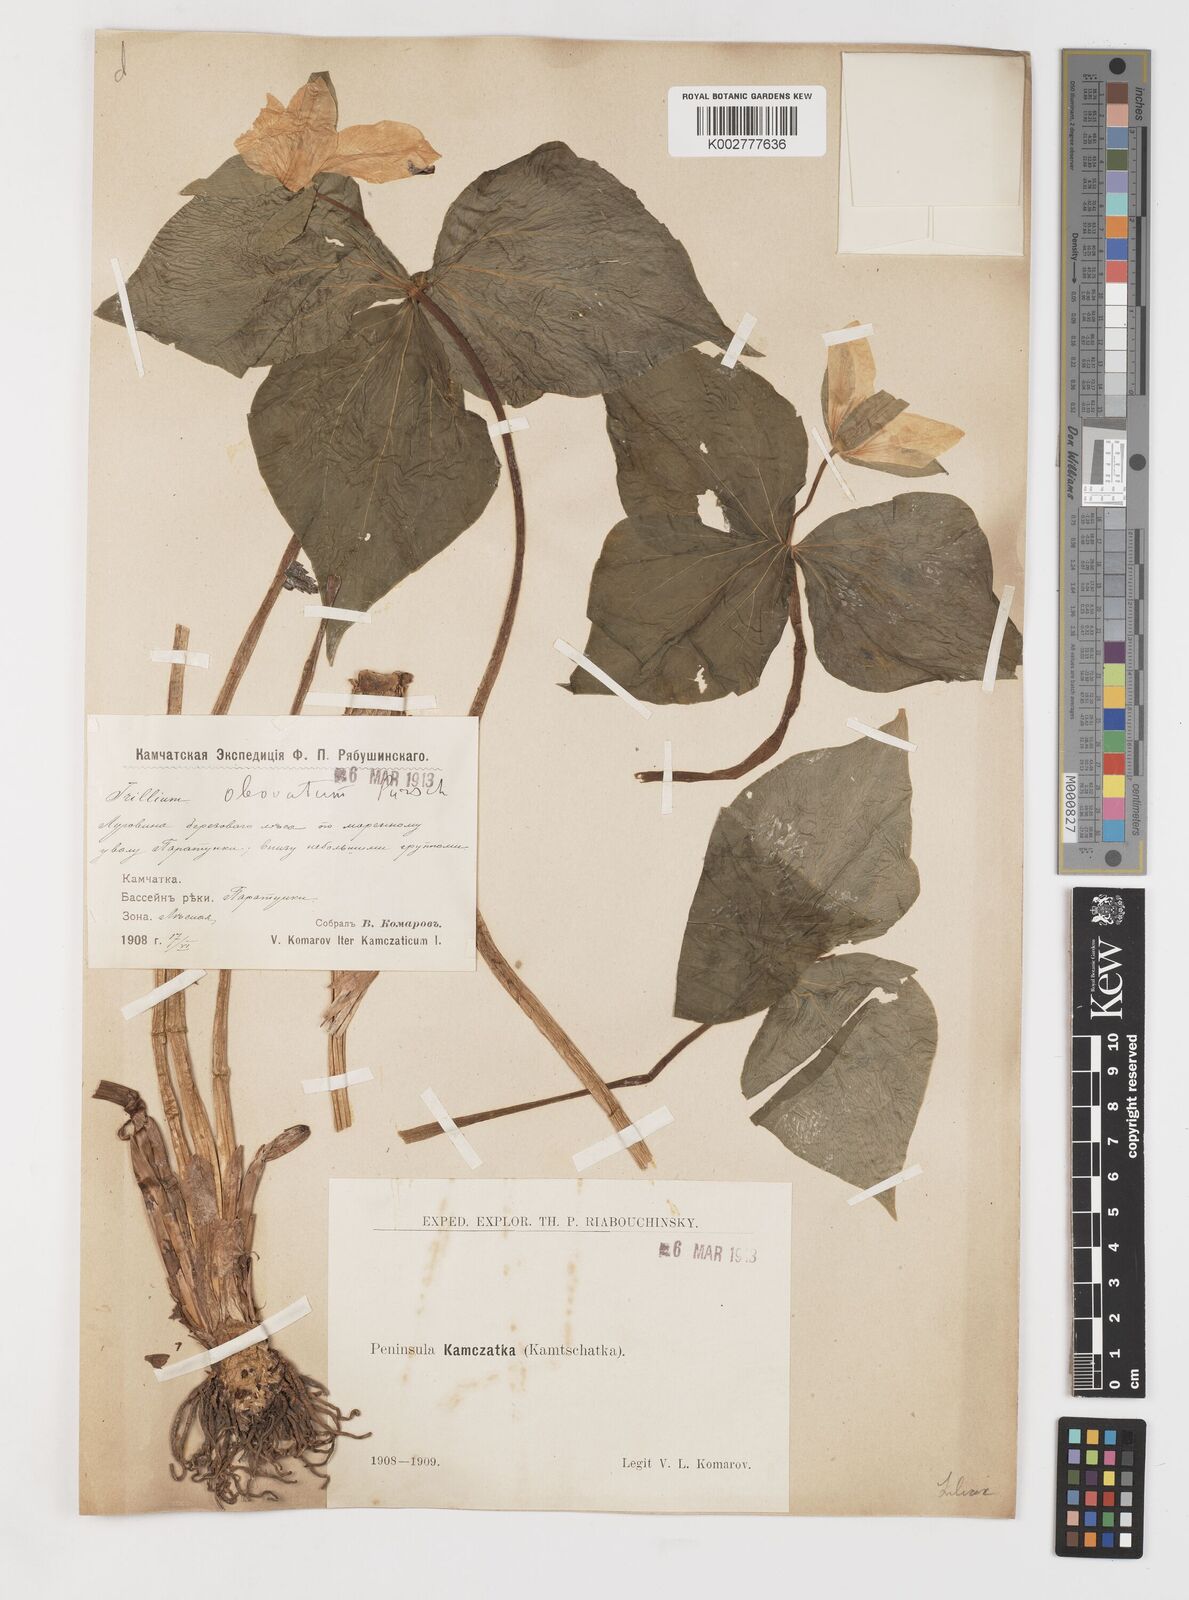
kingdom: Plantae
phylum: Tracheophyta
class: Liliopsida
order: Liliales
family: Melanthiaceae
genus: Trillium
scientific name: Trillium erectum
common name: Purple trillium
